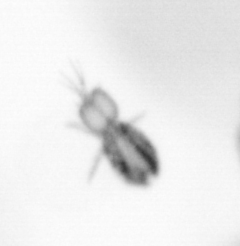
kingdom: Animalia
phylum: Arthropoda
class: Copepoda
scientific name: Copepoda
